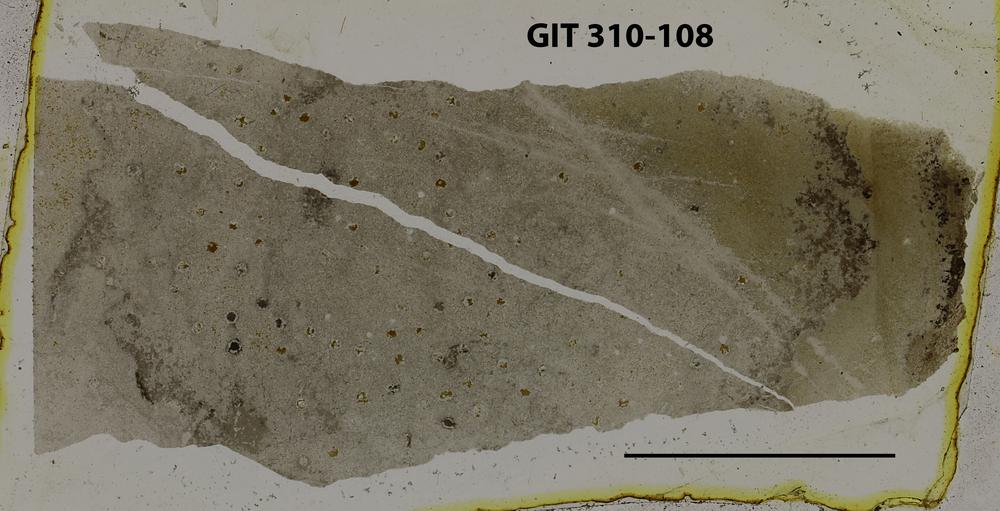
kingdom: Animalia
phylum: Porifera
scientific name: Porifera
